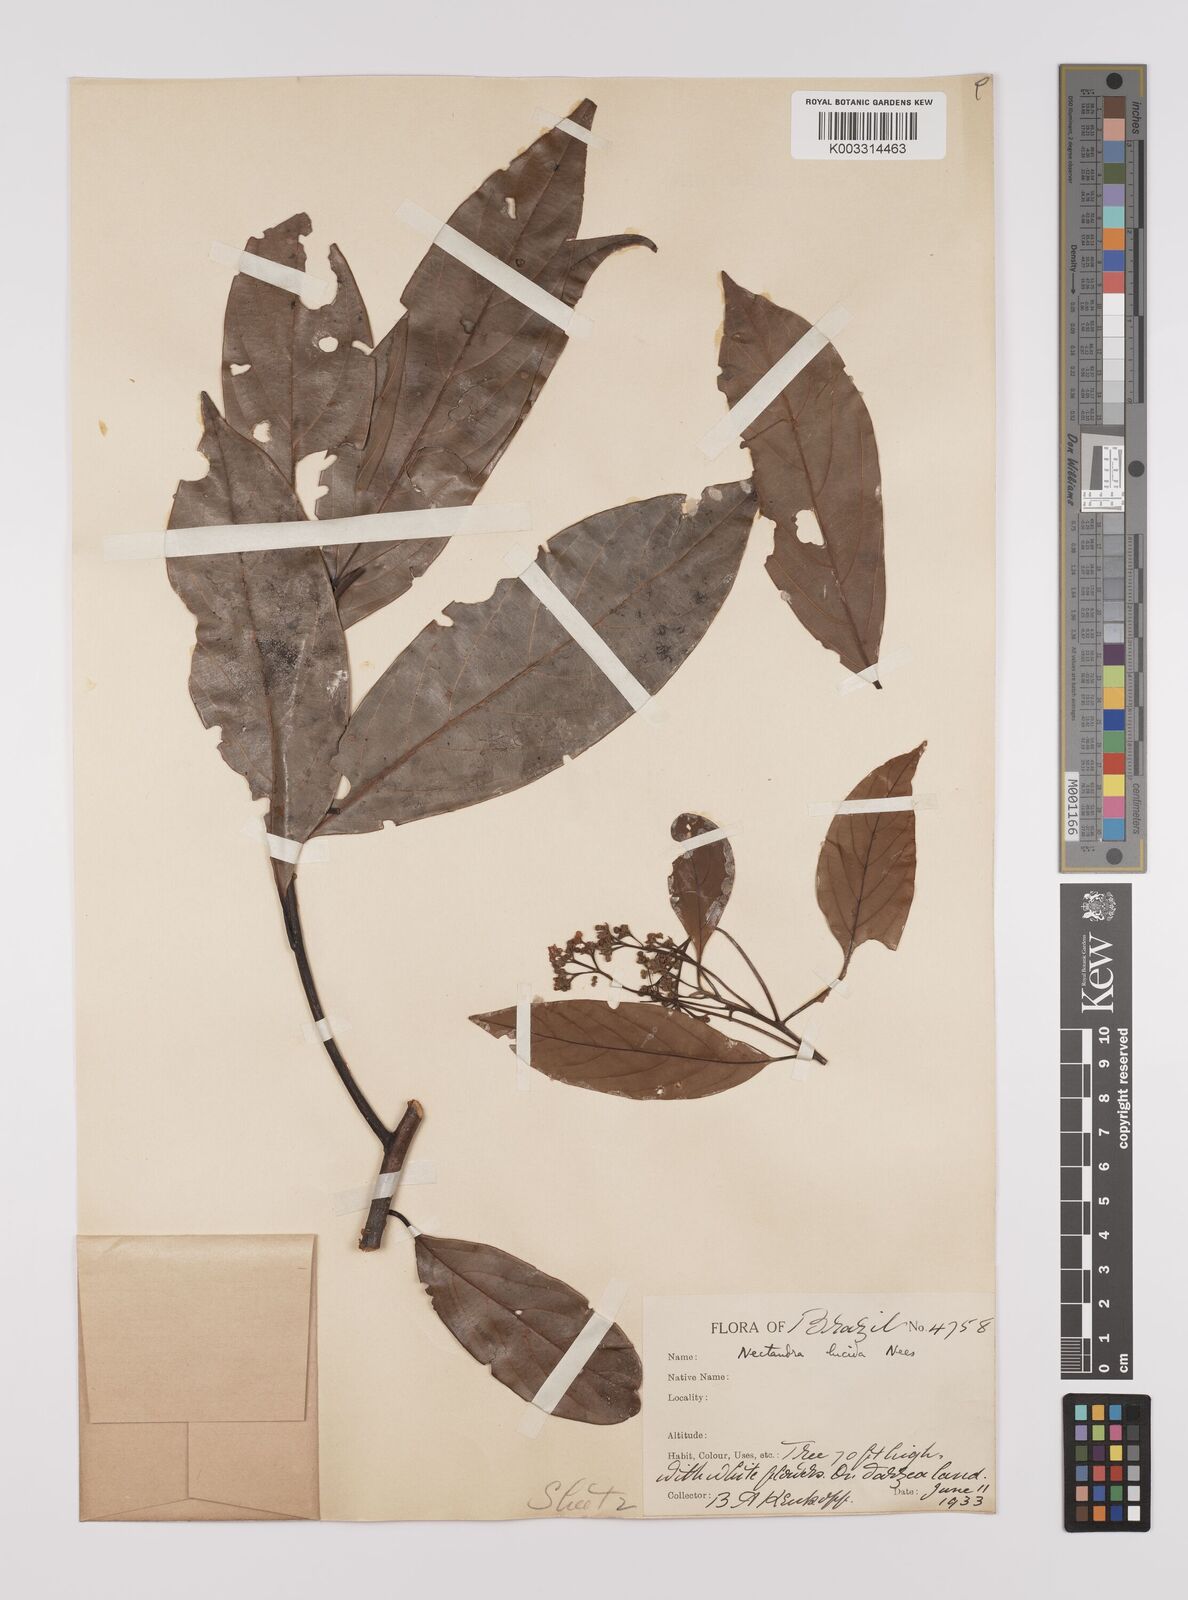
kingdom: Plantae
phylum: Tracheophyta
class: Magnoliopsida
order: Laurales
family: Lauraceae
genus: Endlicheria
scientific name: Endlicheria paniculata
